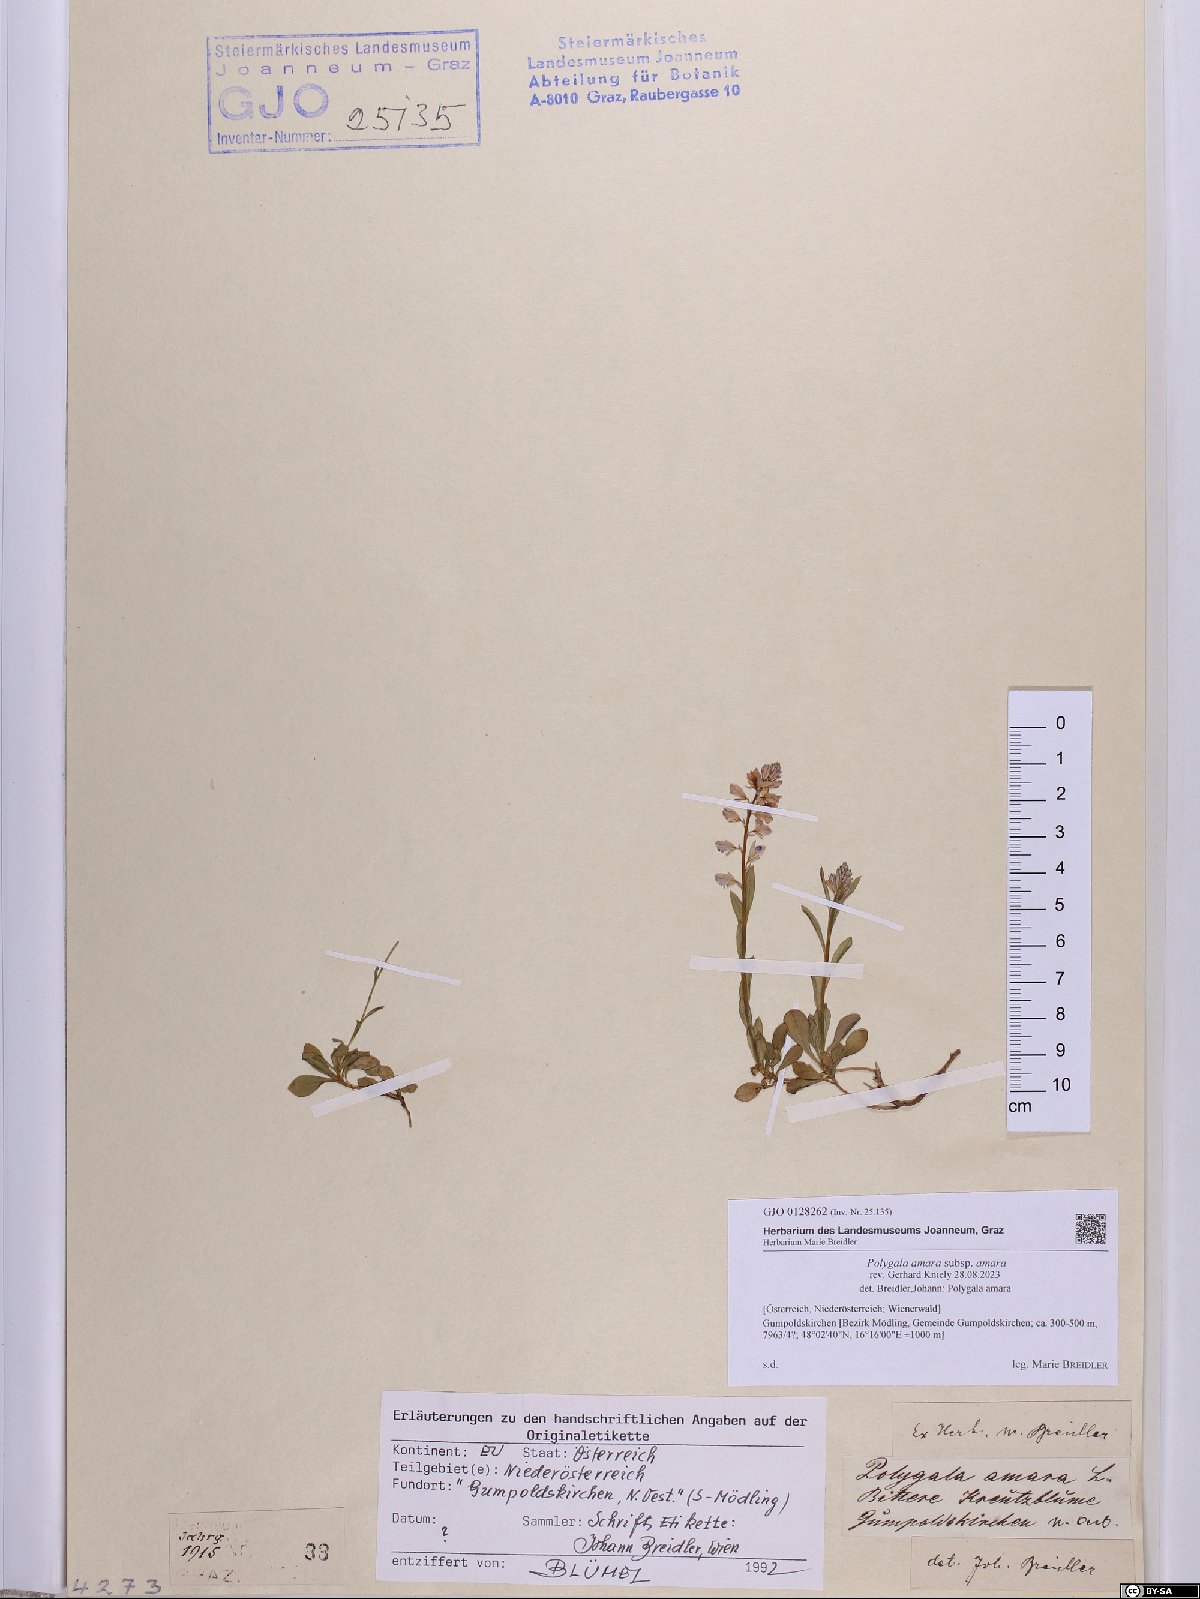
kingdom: Plantae
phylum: Tracheophyta
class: Magnoliopsida
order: Fabales
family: Polygalaceae
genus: Polygala
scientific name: Polygala amara
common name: Milkwort
